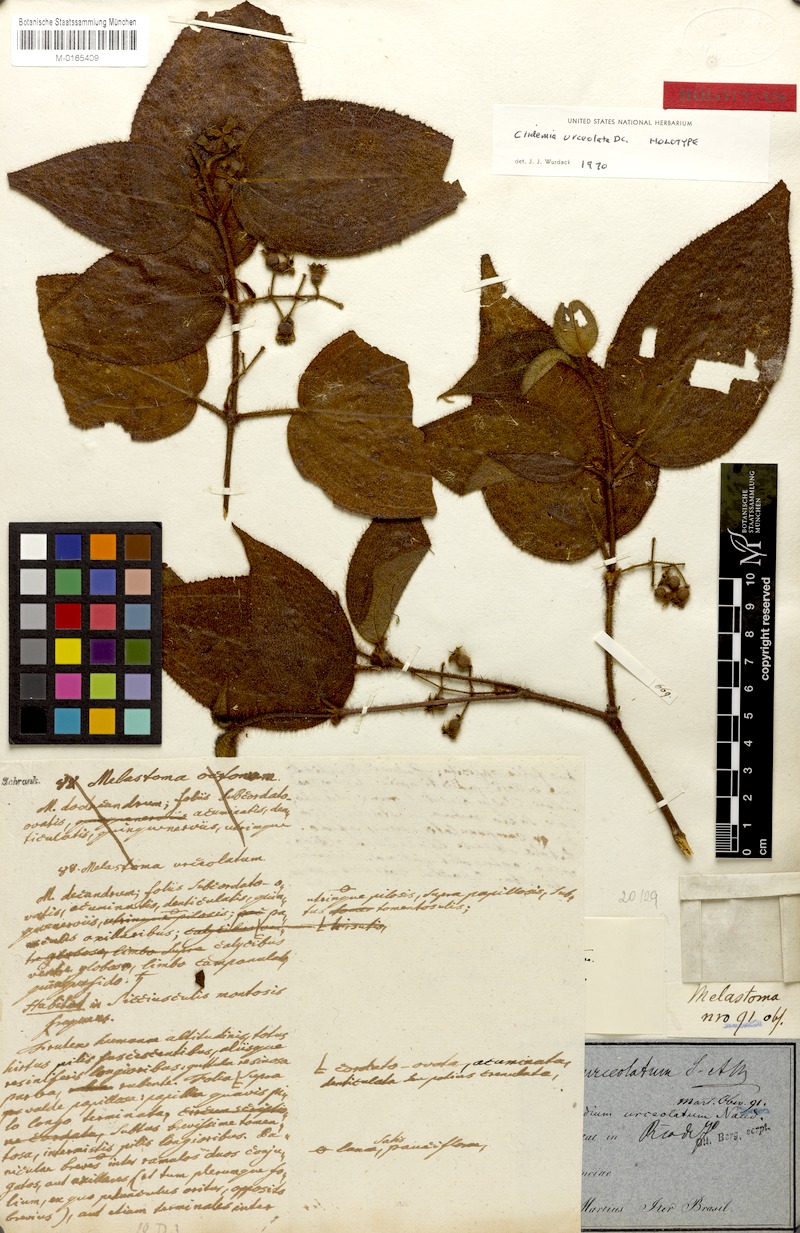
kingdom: Plantae
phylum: Tracheophyta
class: Magnoliopsida
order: Myrtales
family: Melastomataceae
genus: Miconia
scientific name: Miconia neourceolata
